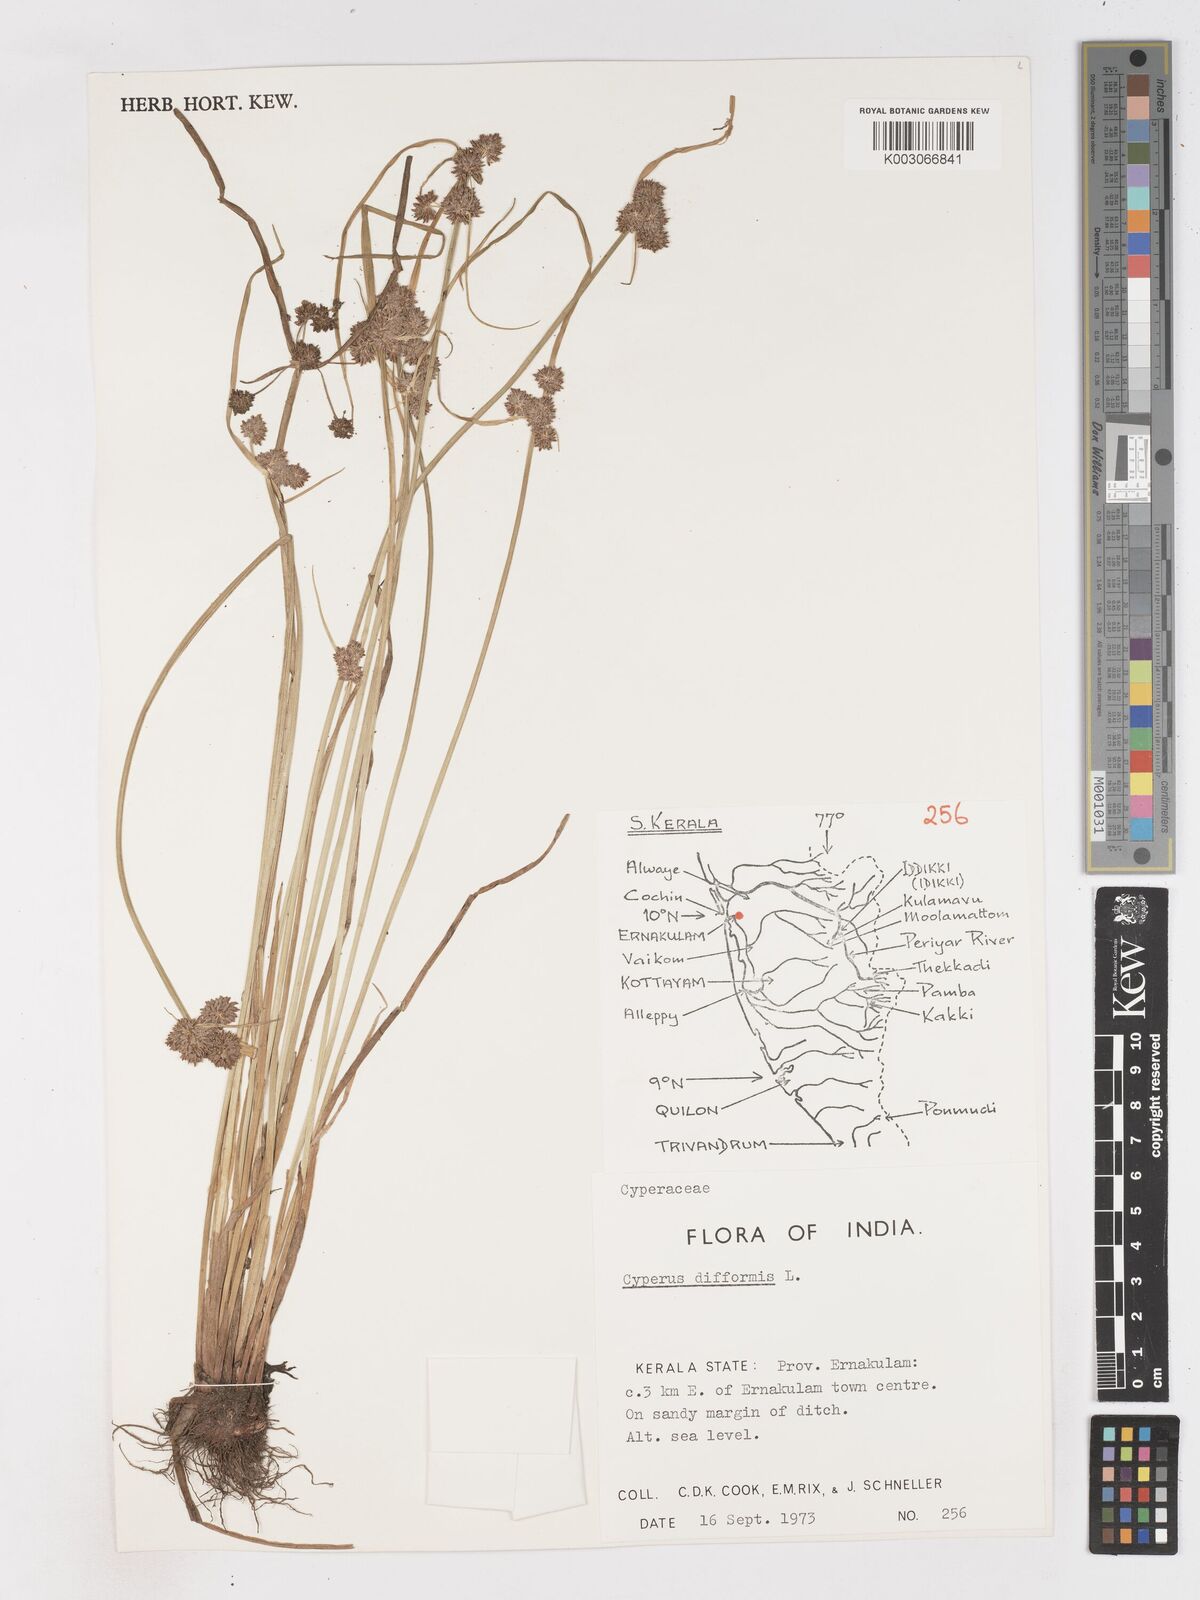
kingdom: Plantae
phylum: Tracheophyta
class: Liliopsida
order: Poales
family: Cyperaceae
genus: Cyperus
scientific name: Cyperus difformis
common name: Variable flatsedge
